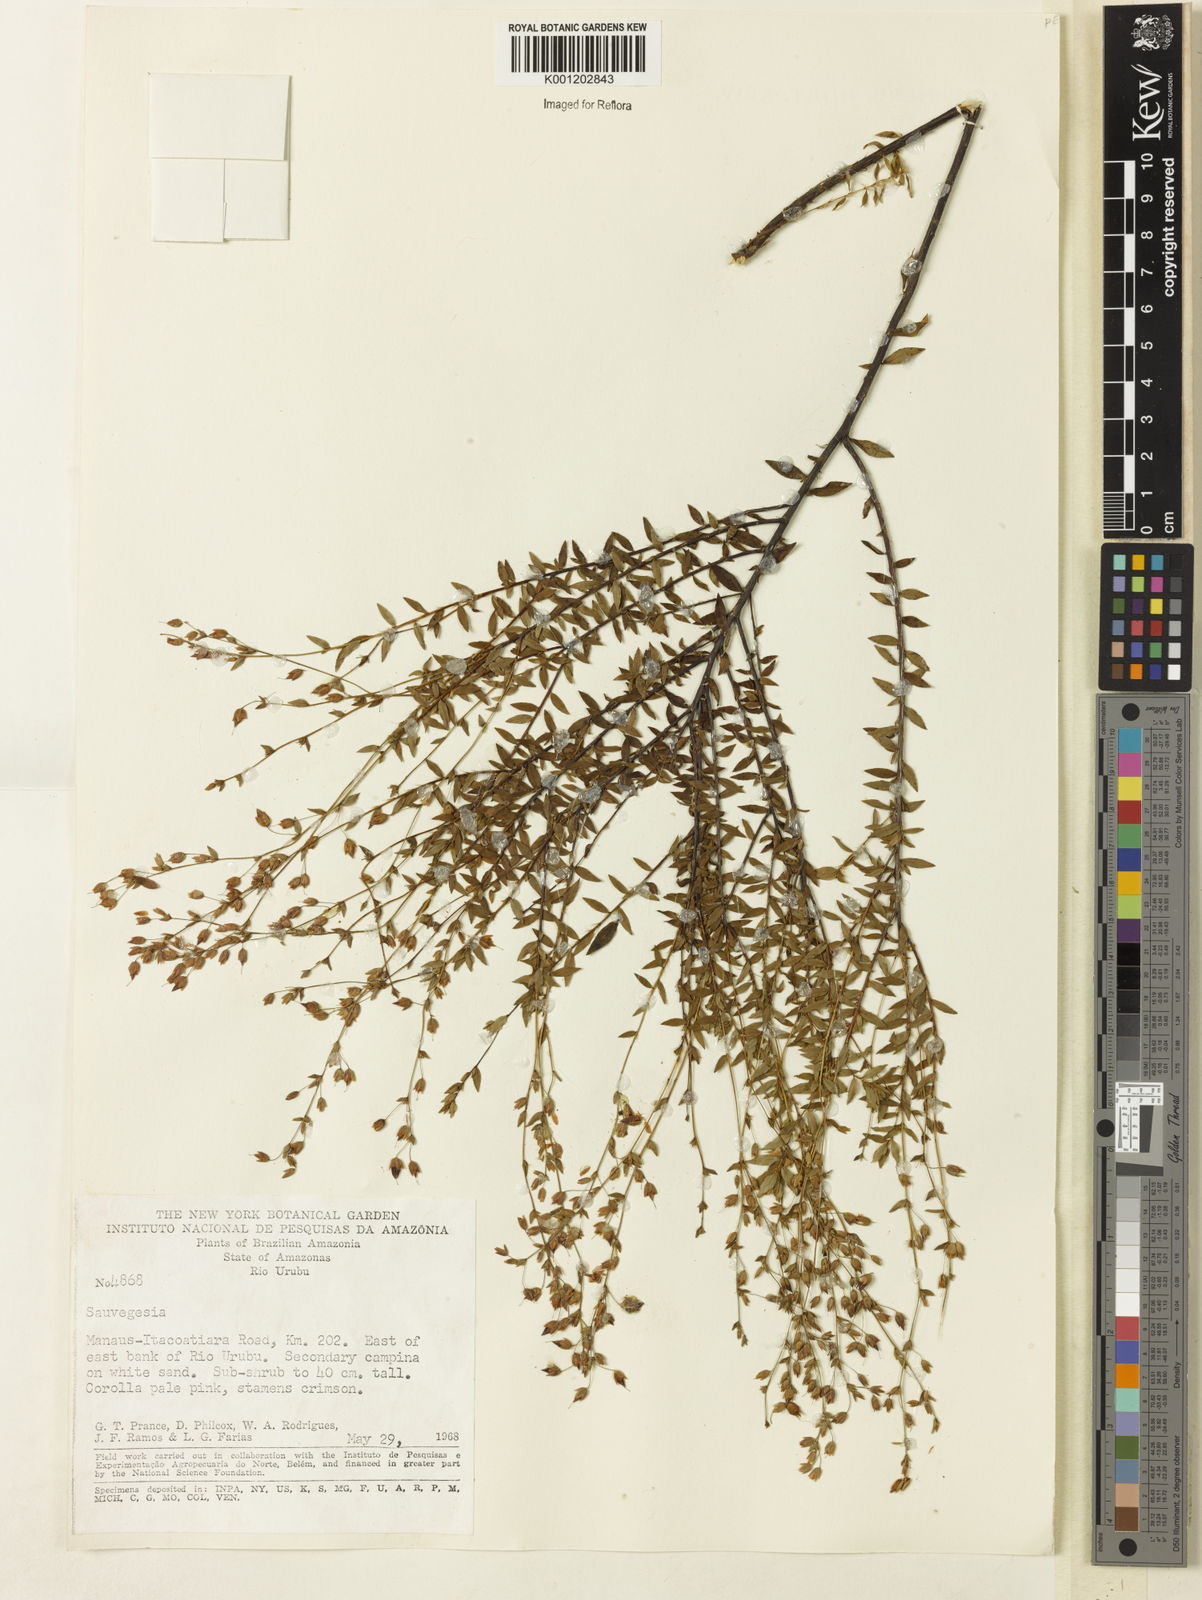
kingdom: Plantae
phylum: Tracheophyta
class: Magnoliopsida
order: Malpighiales
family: Ochnaceae
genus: Sauvagesia
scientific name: Sauvagesia sprengelii
